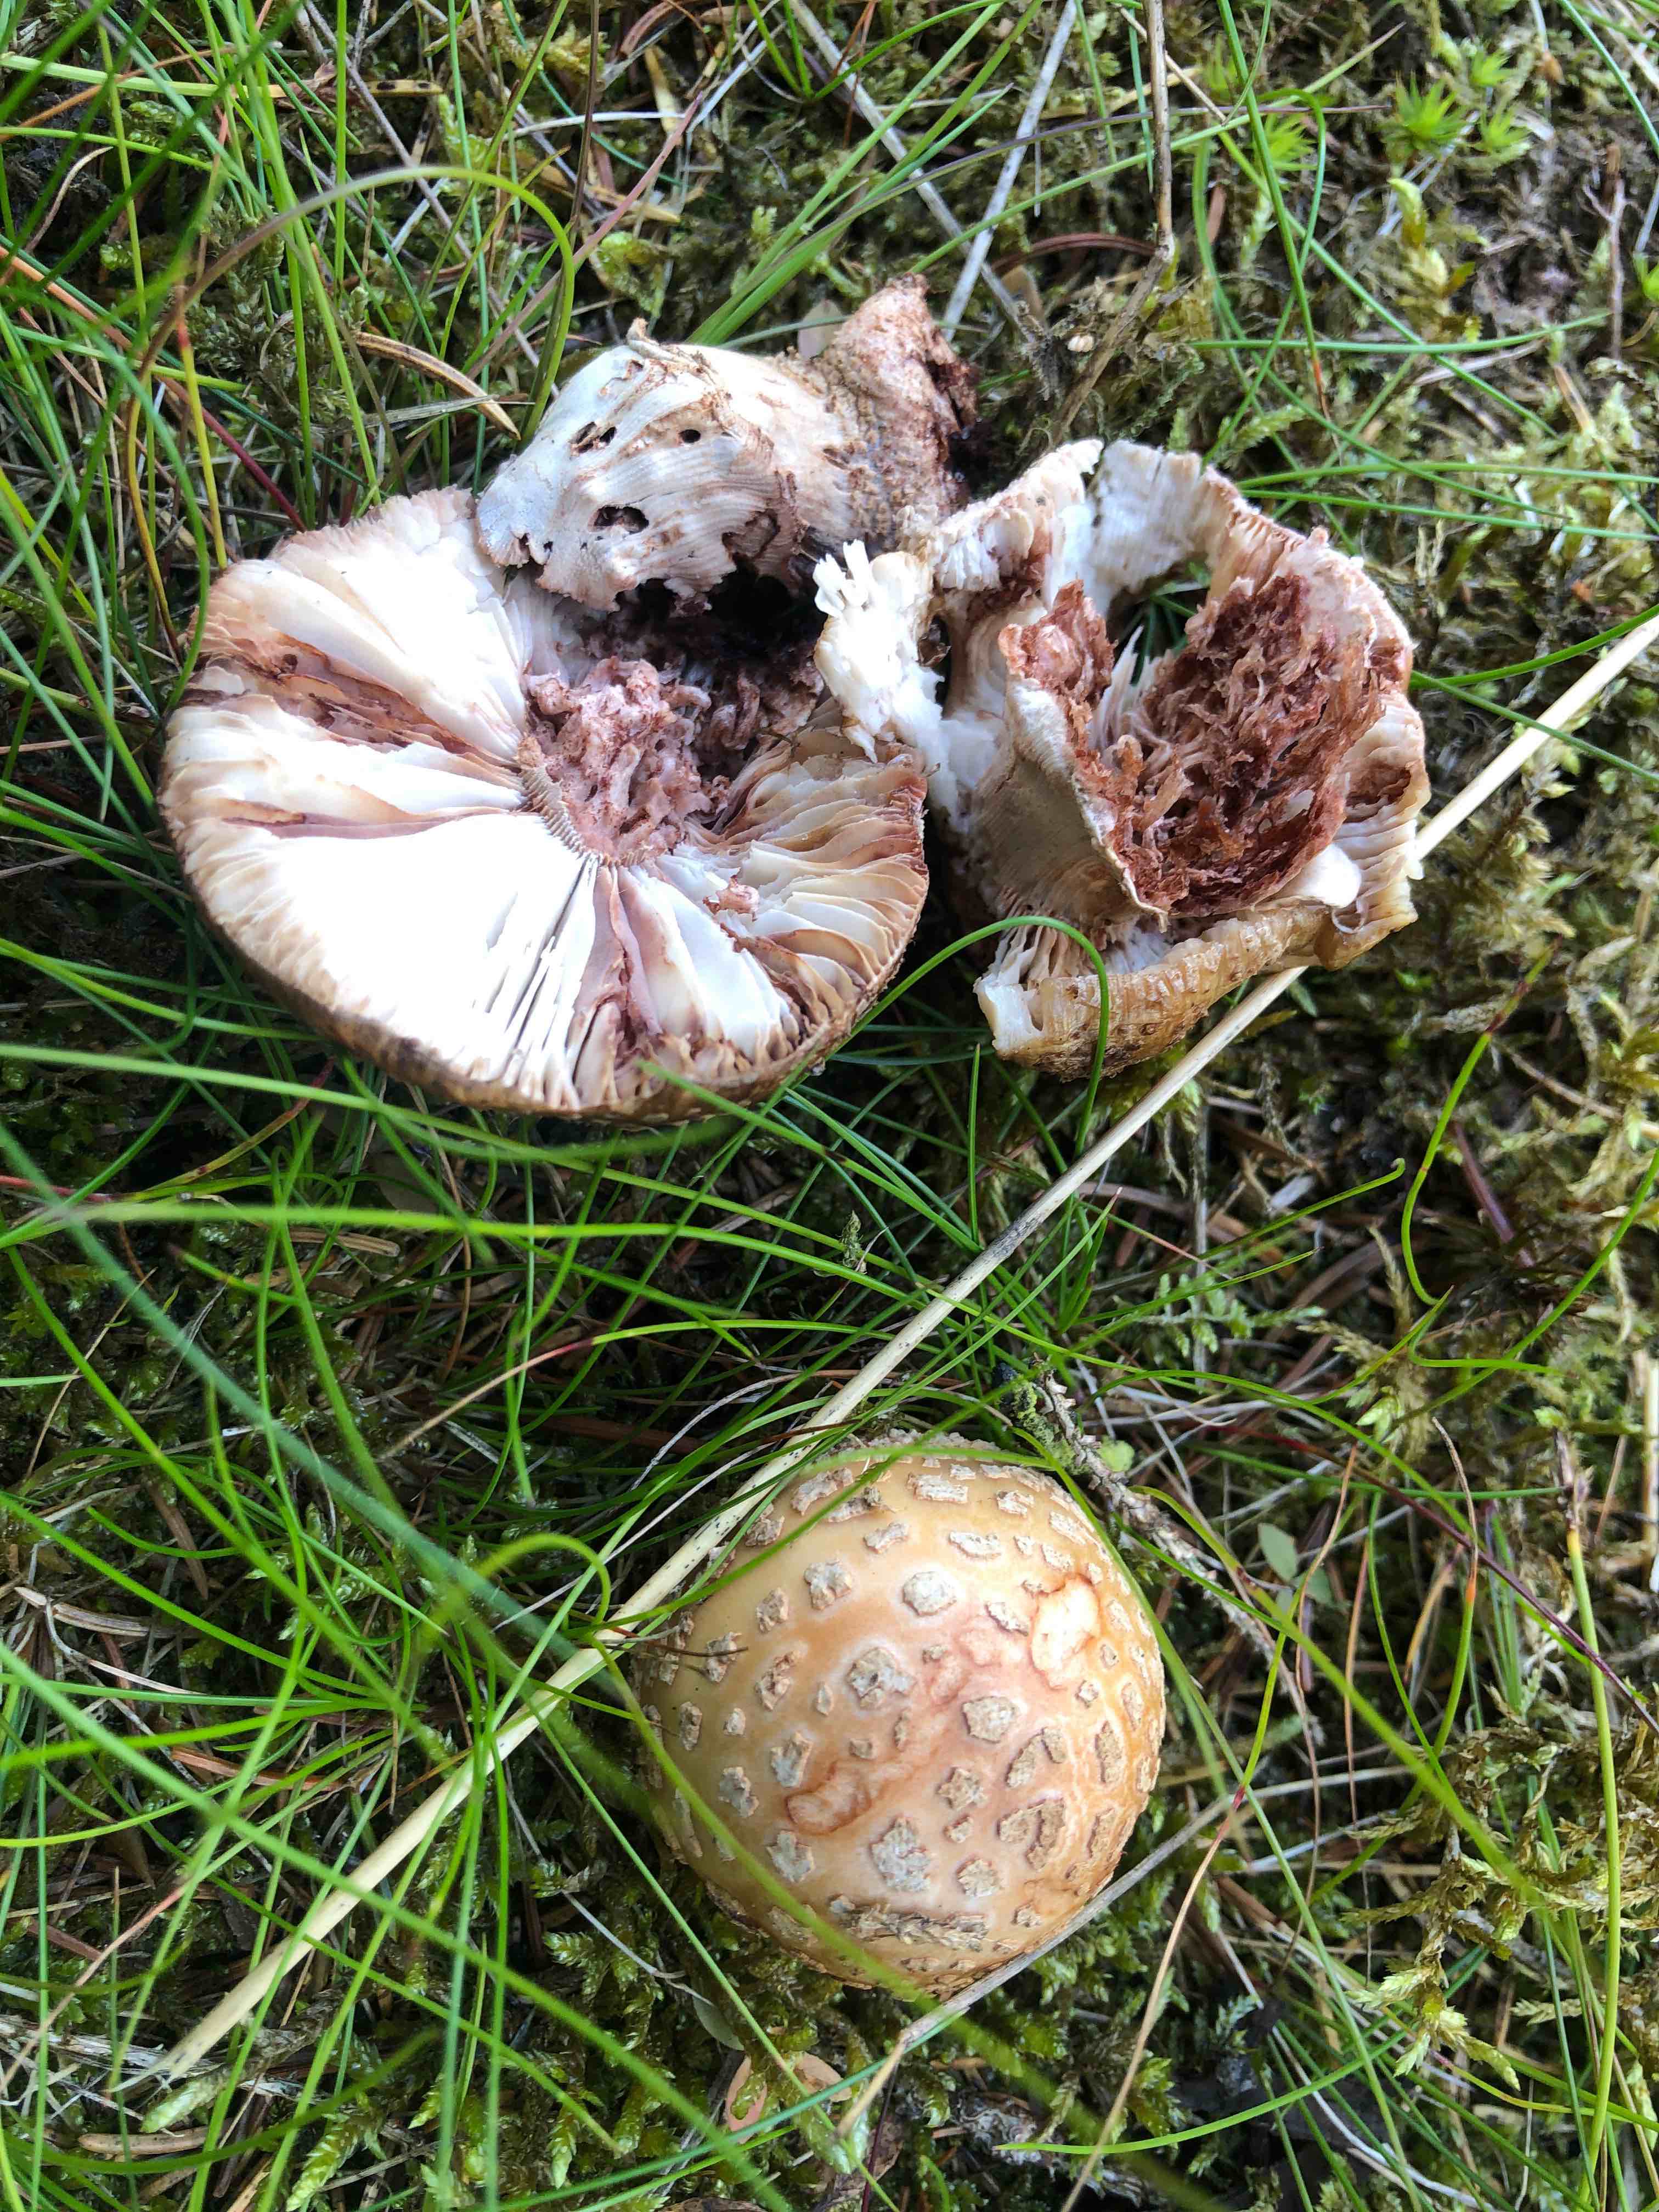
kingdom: Fungi
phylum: Basidiomycota
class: Agaricomycetes
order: Agaricales
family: Amanitaceae
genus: Amanita
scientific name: Amanita rubescens
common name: rødmende fluesvamp
